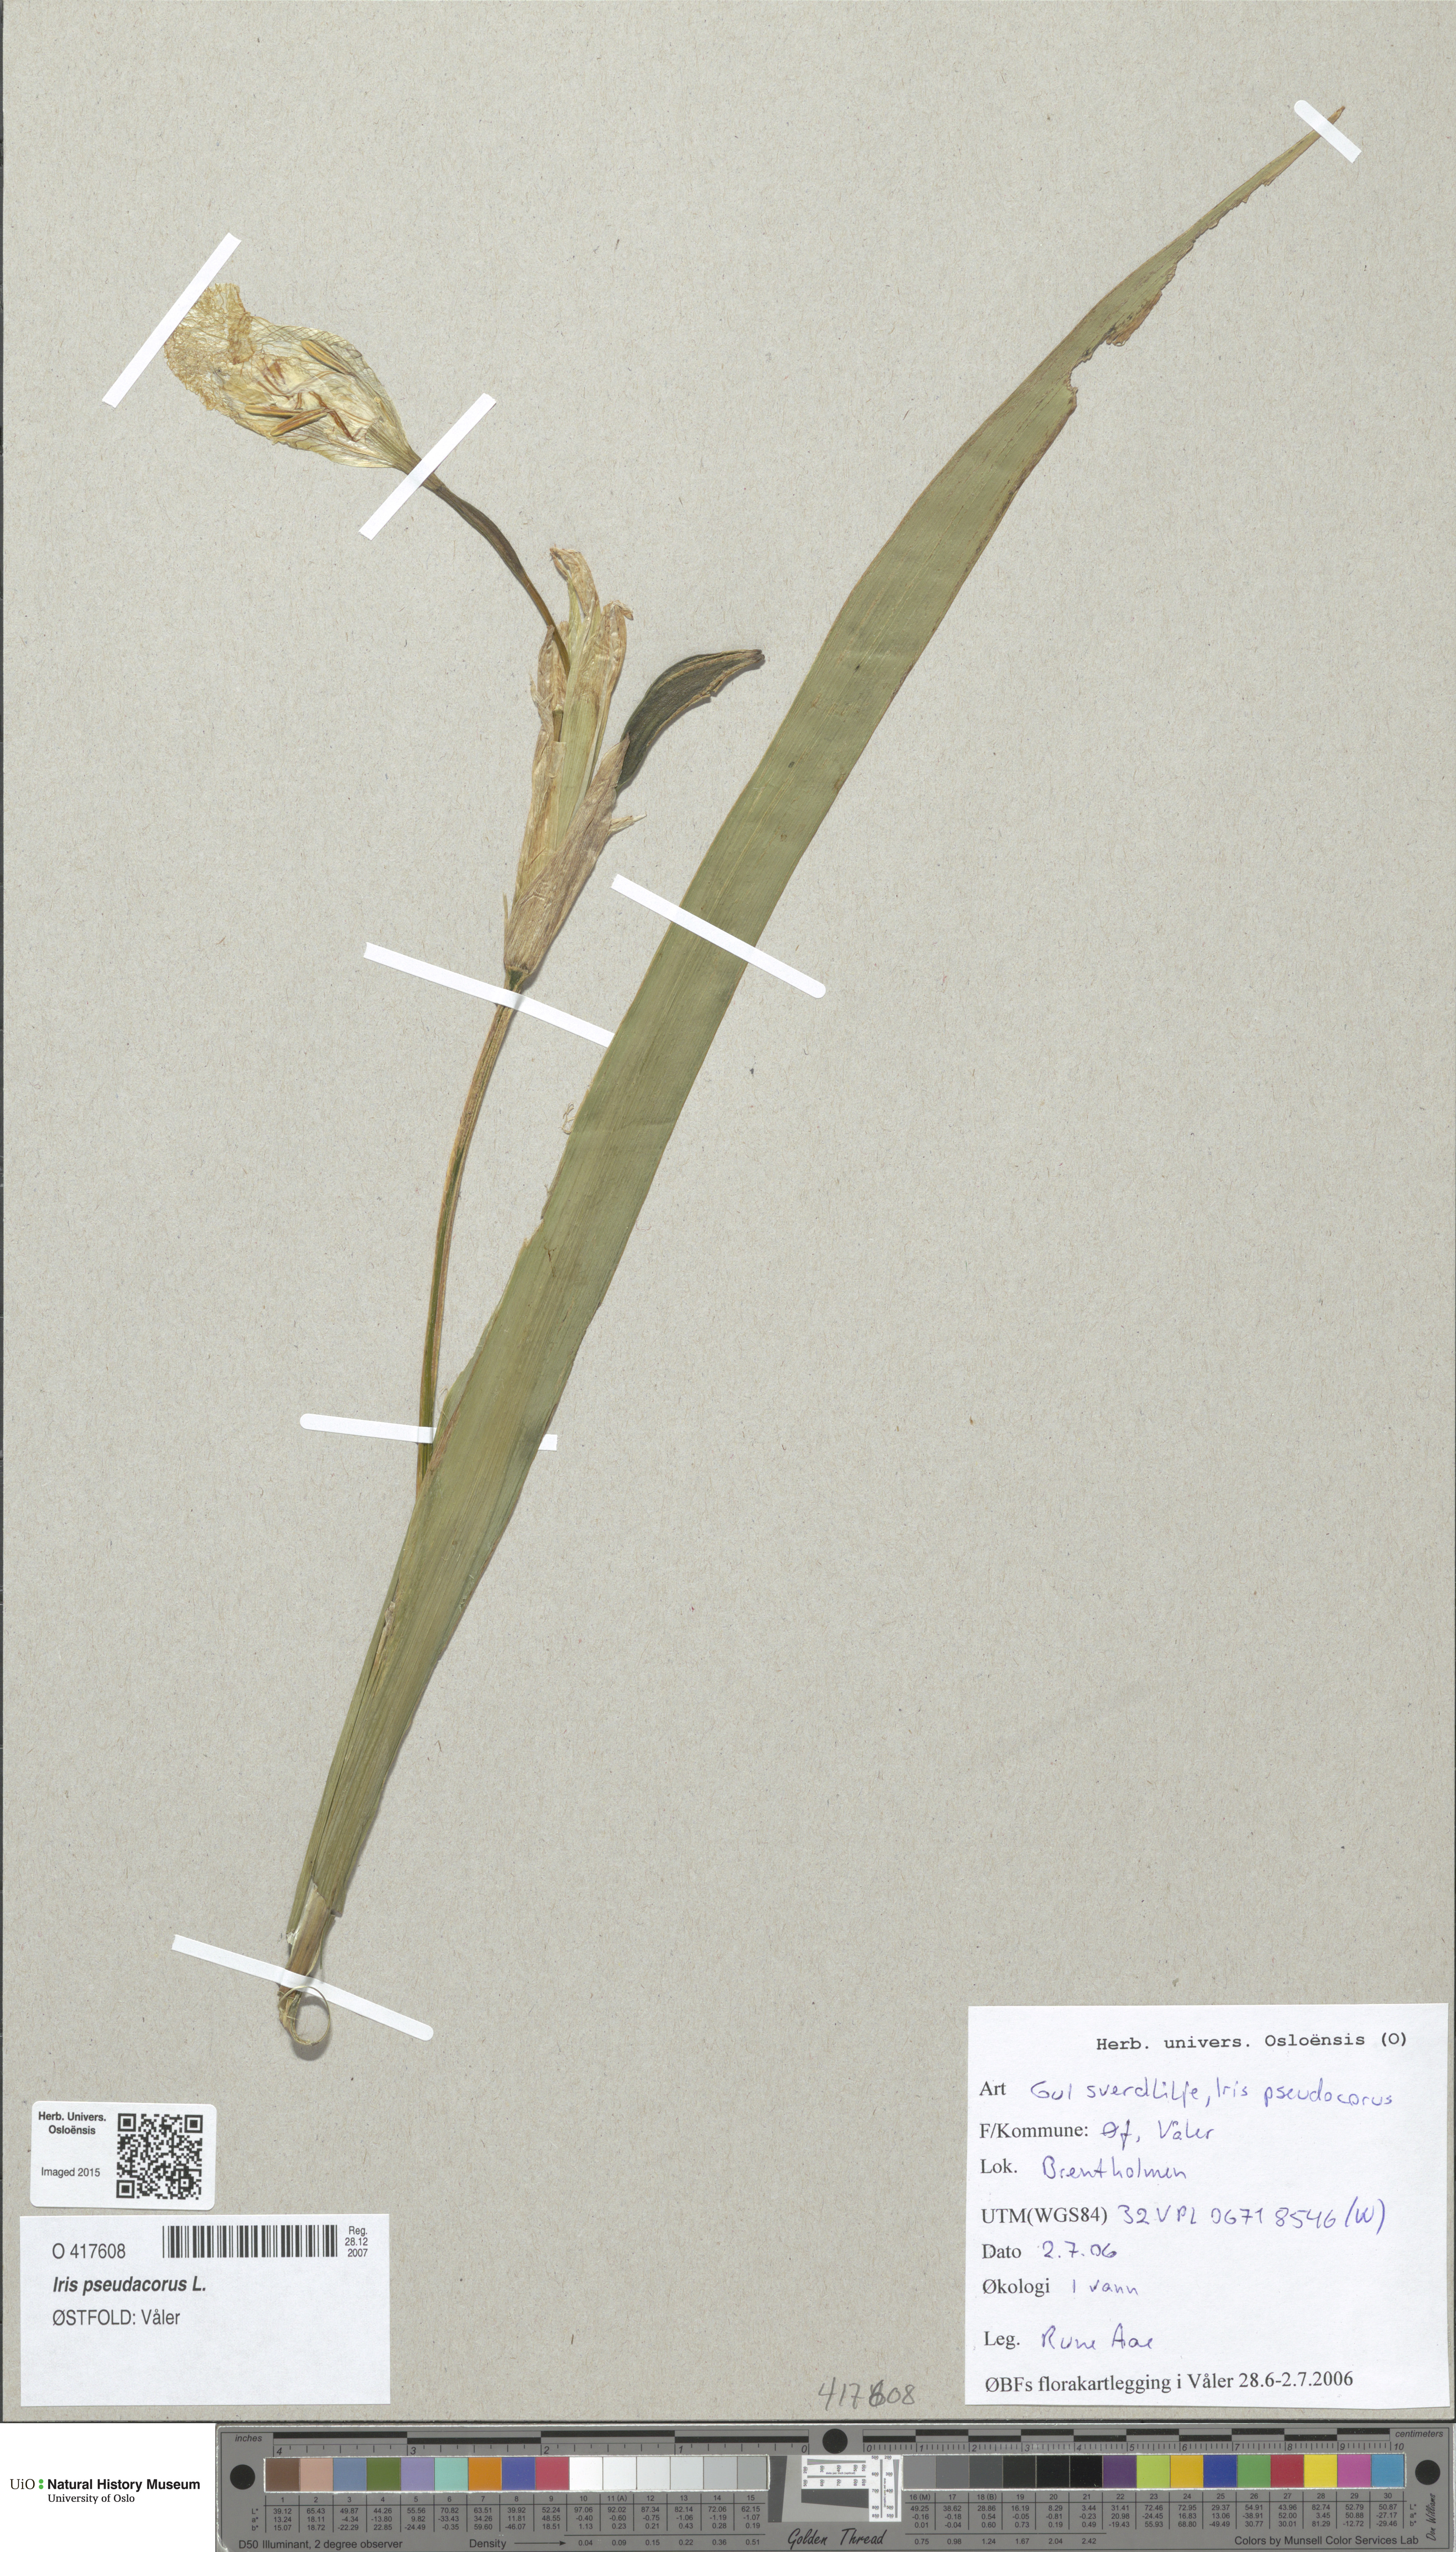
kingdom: Plantae
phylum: Tracheophyta
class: Liliopsida
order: Asparagales
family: Iridaceae
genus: Iris
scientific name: Iris pseudacorus
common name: Yellow flag
